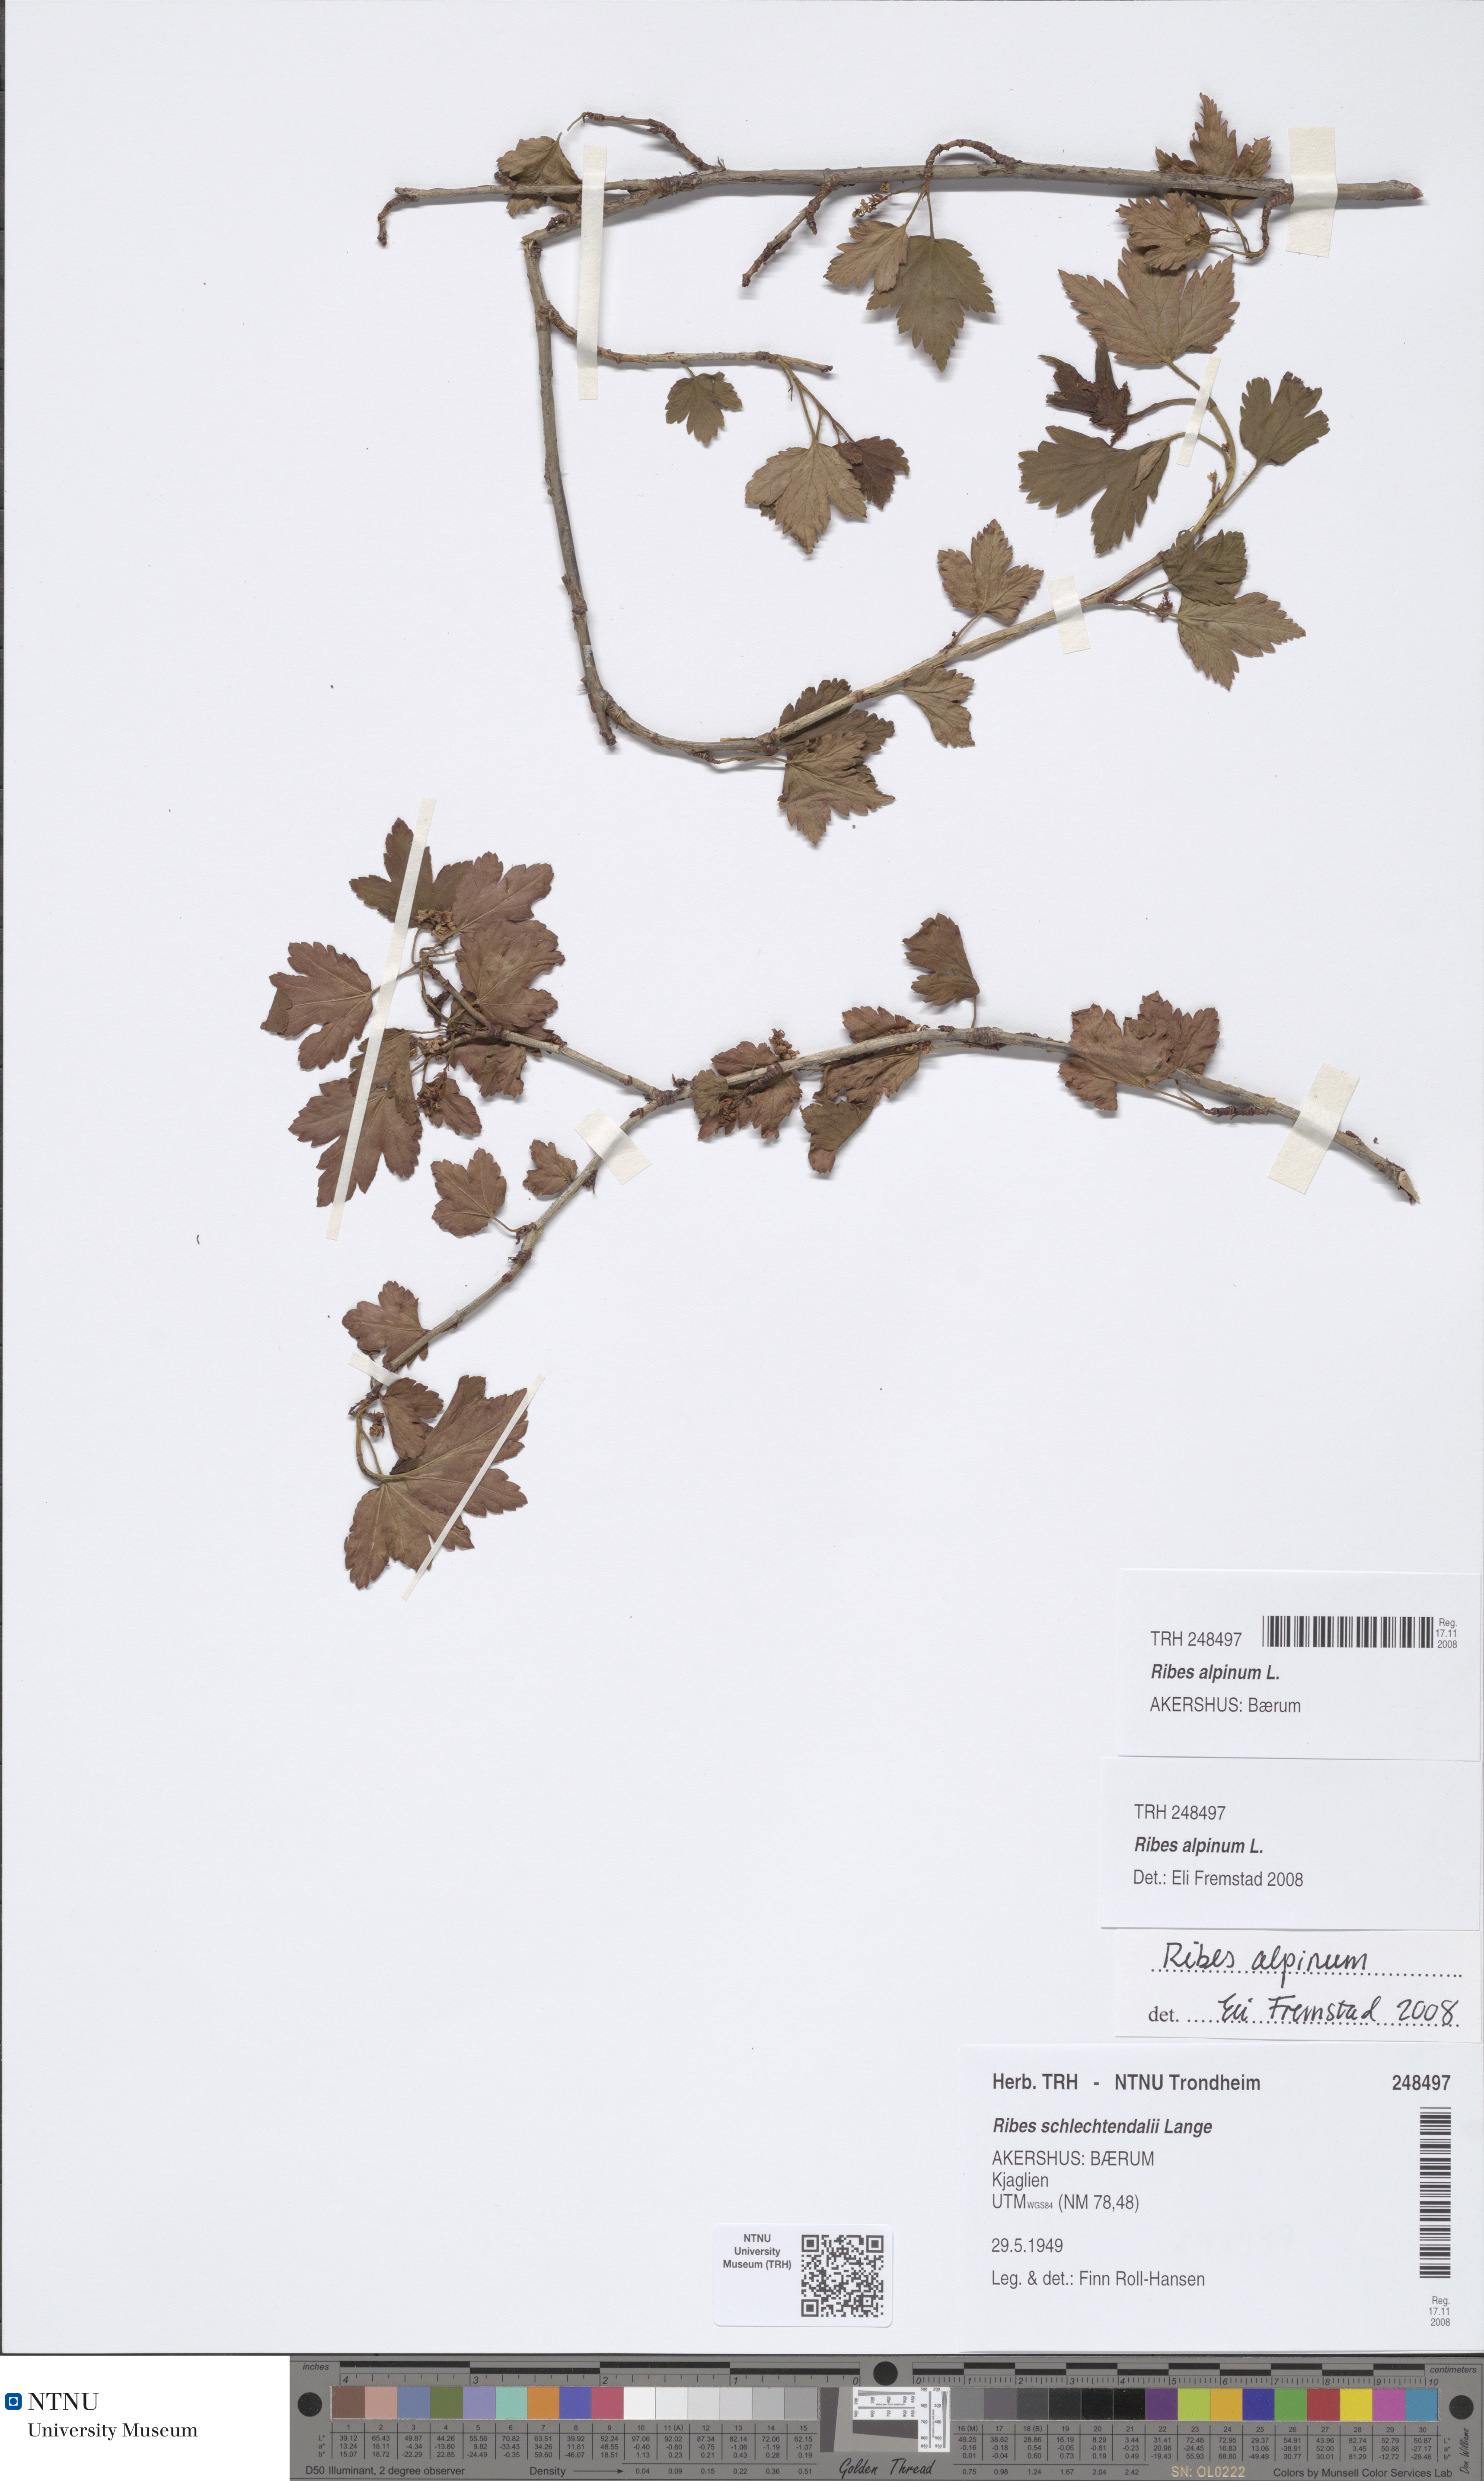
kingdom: Plantae
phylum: Tracheophyta
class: Magnoliopsida
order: Saxifragales
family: Grossulariaceae
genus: Ribes
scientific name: Ribes alpinum
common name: Alpine currant
